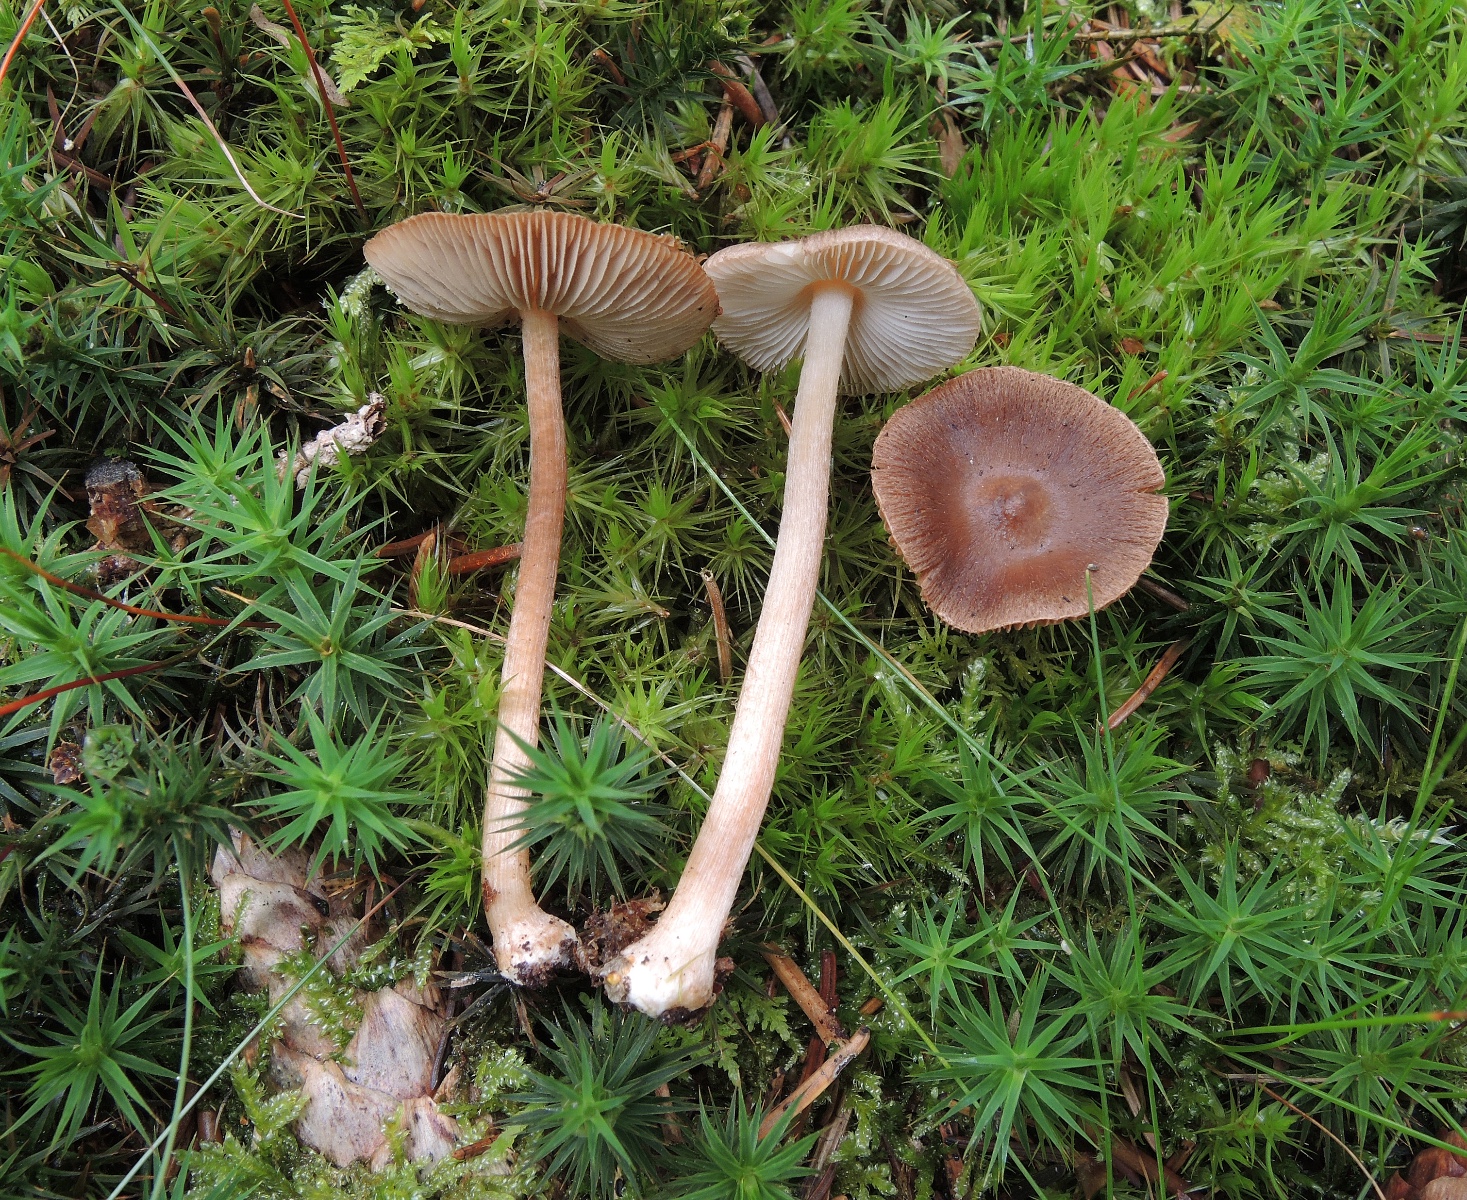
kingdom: Fungi
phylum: Basidiomycota
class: Agaricomycetes
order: Agaricales
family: Inocybaceae
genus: Inocybe
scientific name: Inocybe napipes
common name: roeknoldet trævlhat
